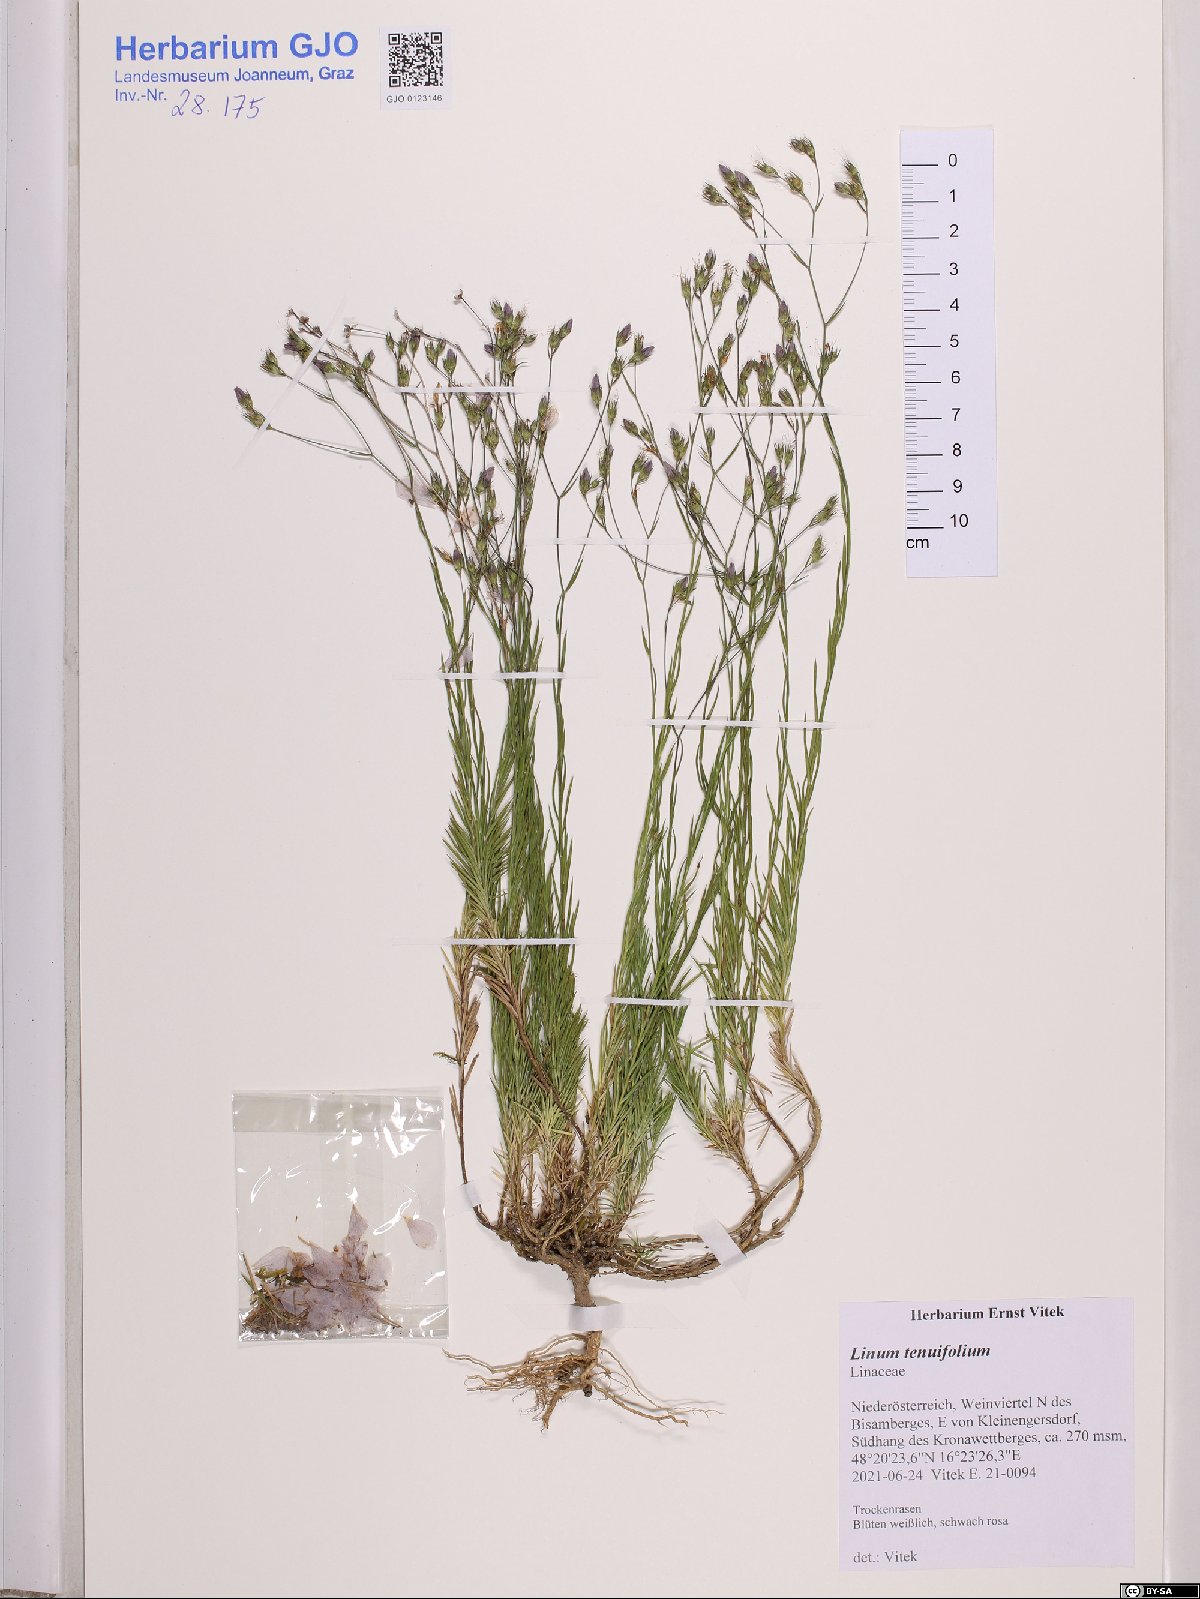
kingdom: Plantae
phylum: Tracheophyta
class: Magnoliopsida
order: Malpighiales
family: Linaceae
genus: Linum
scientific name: Linum tenuifolium
